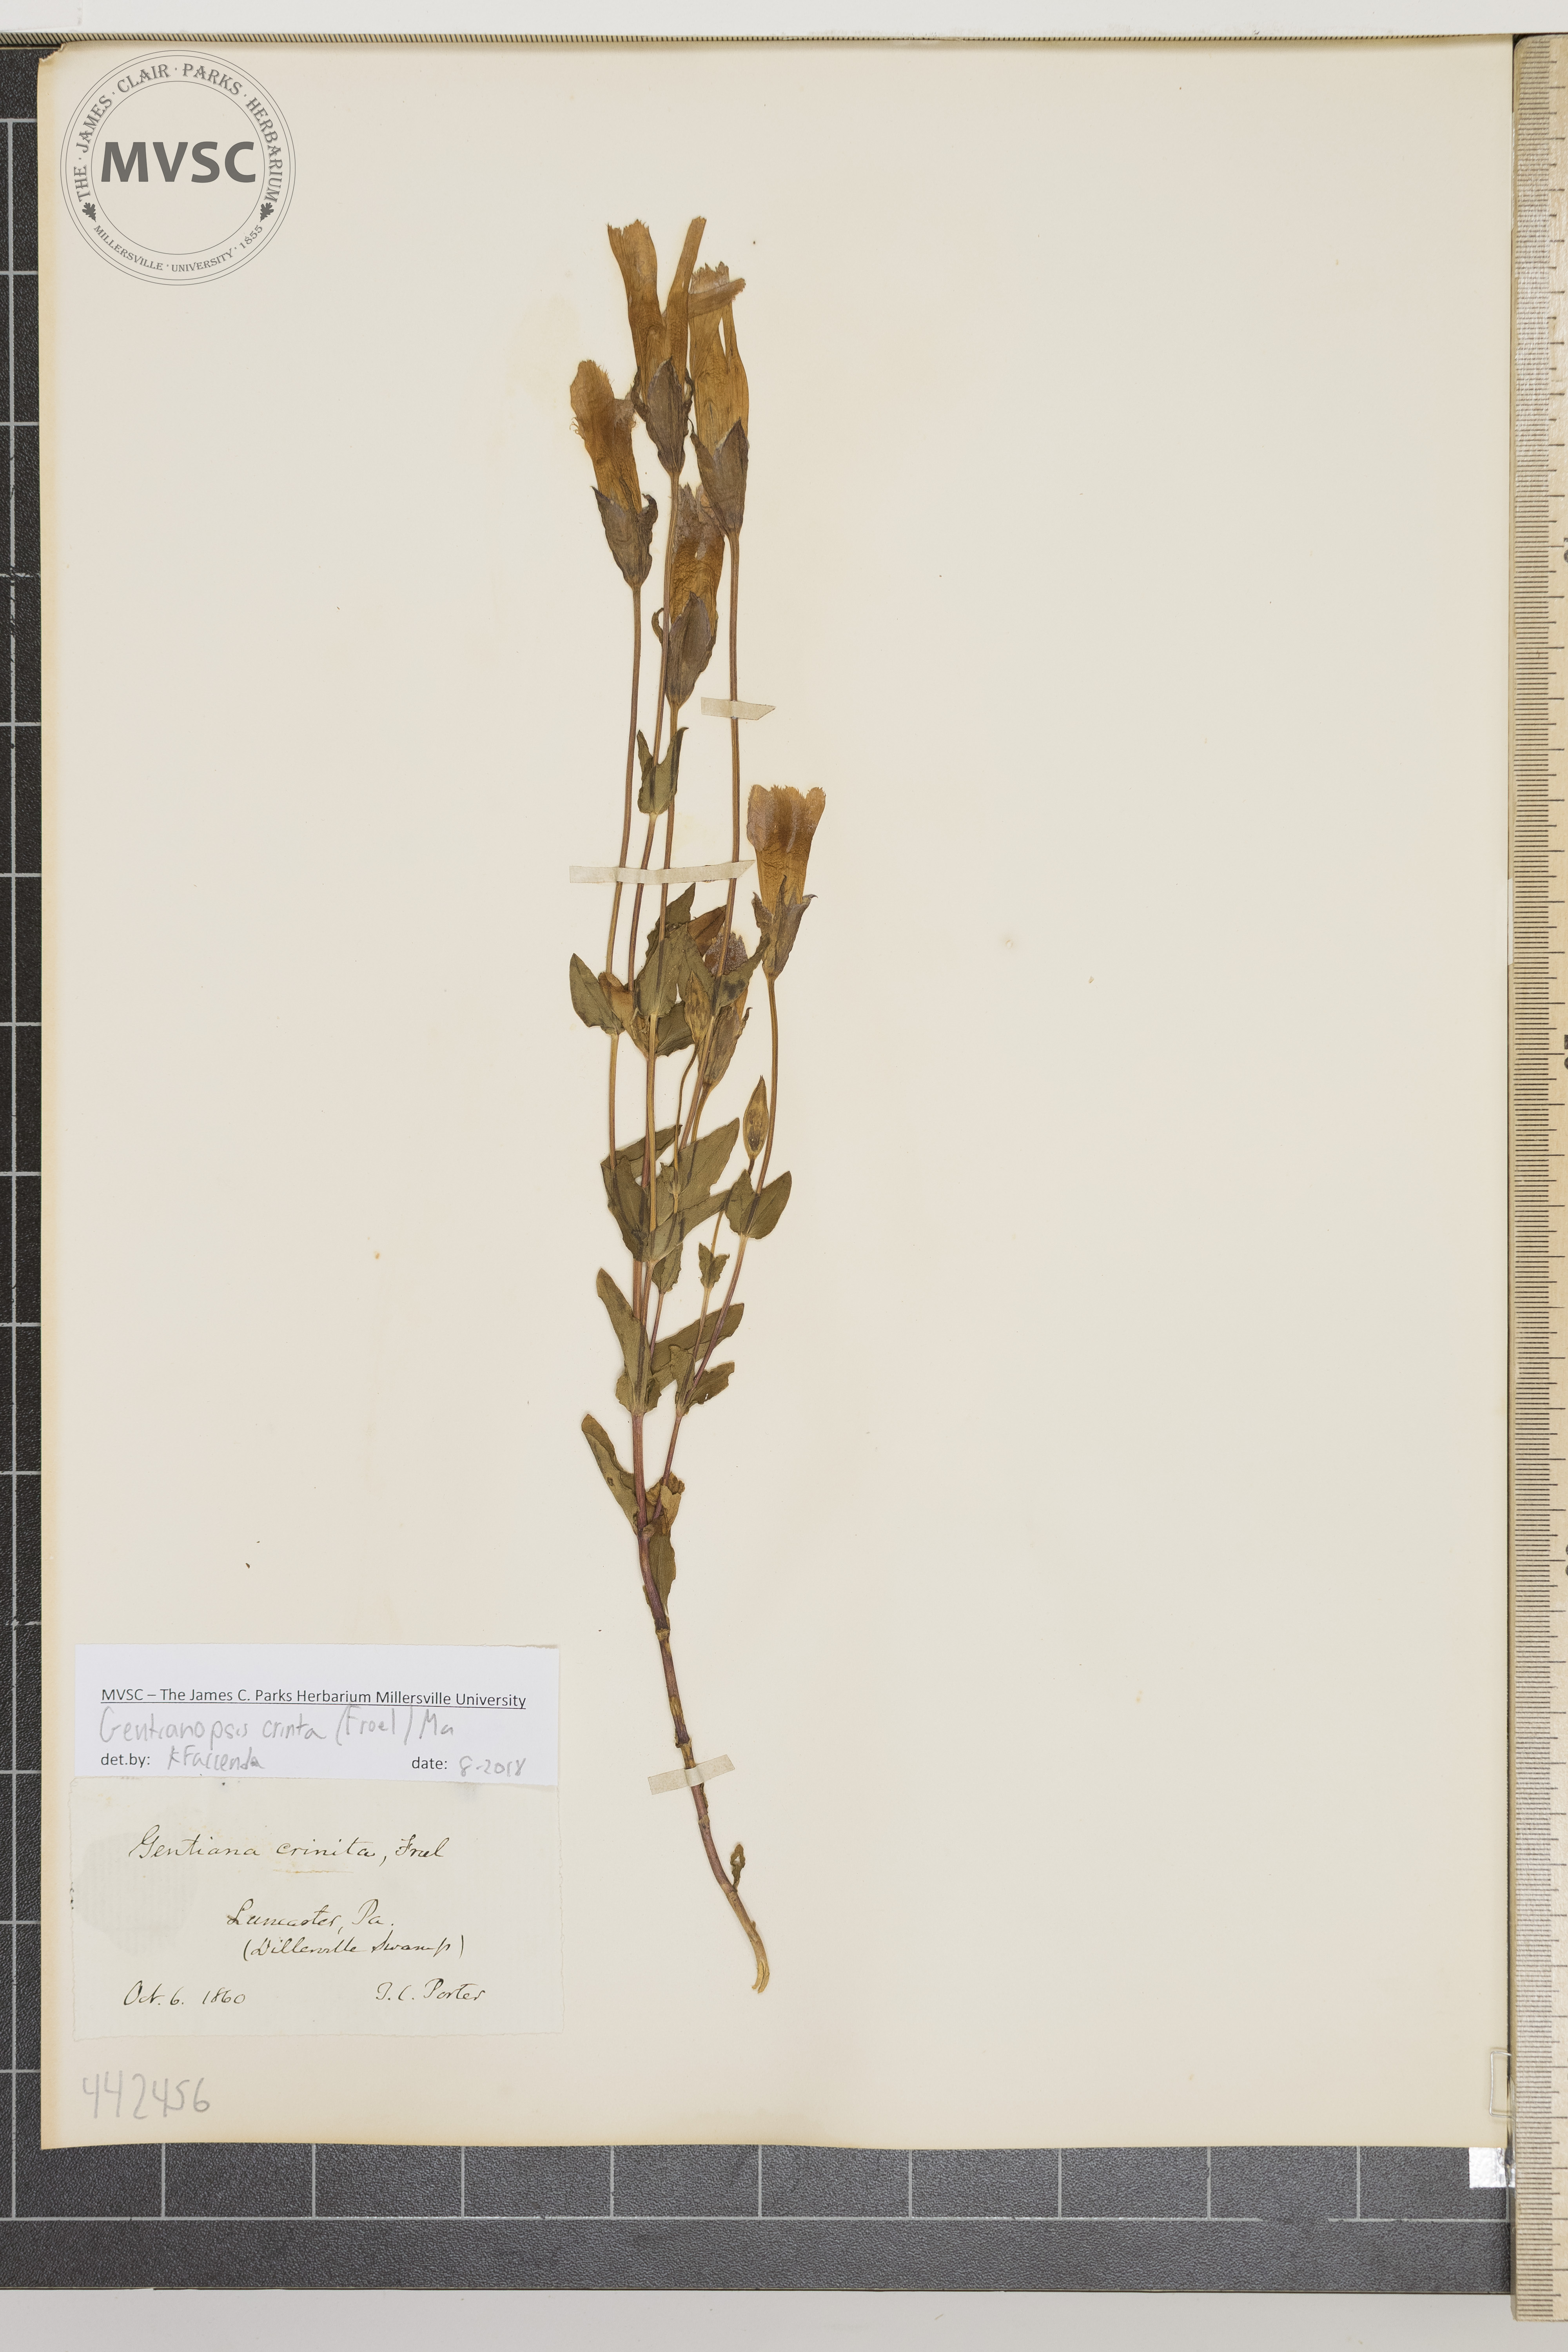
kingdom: Plantae
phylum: Tracheophyta
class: Magnoliopsida
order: Gentianales
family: Gentianaceae
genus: Gentianopsis
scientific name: Gentianopsis crinita
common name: Fringed-gentian
